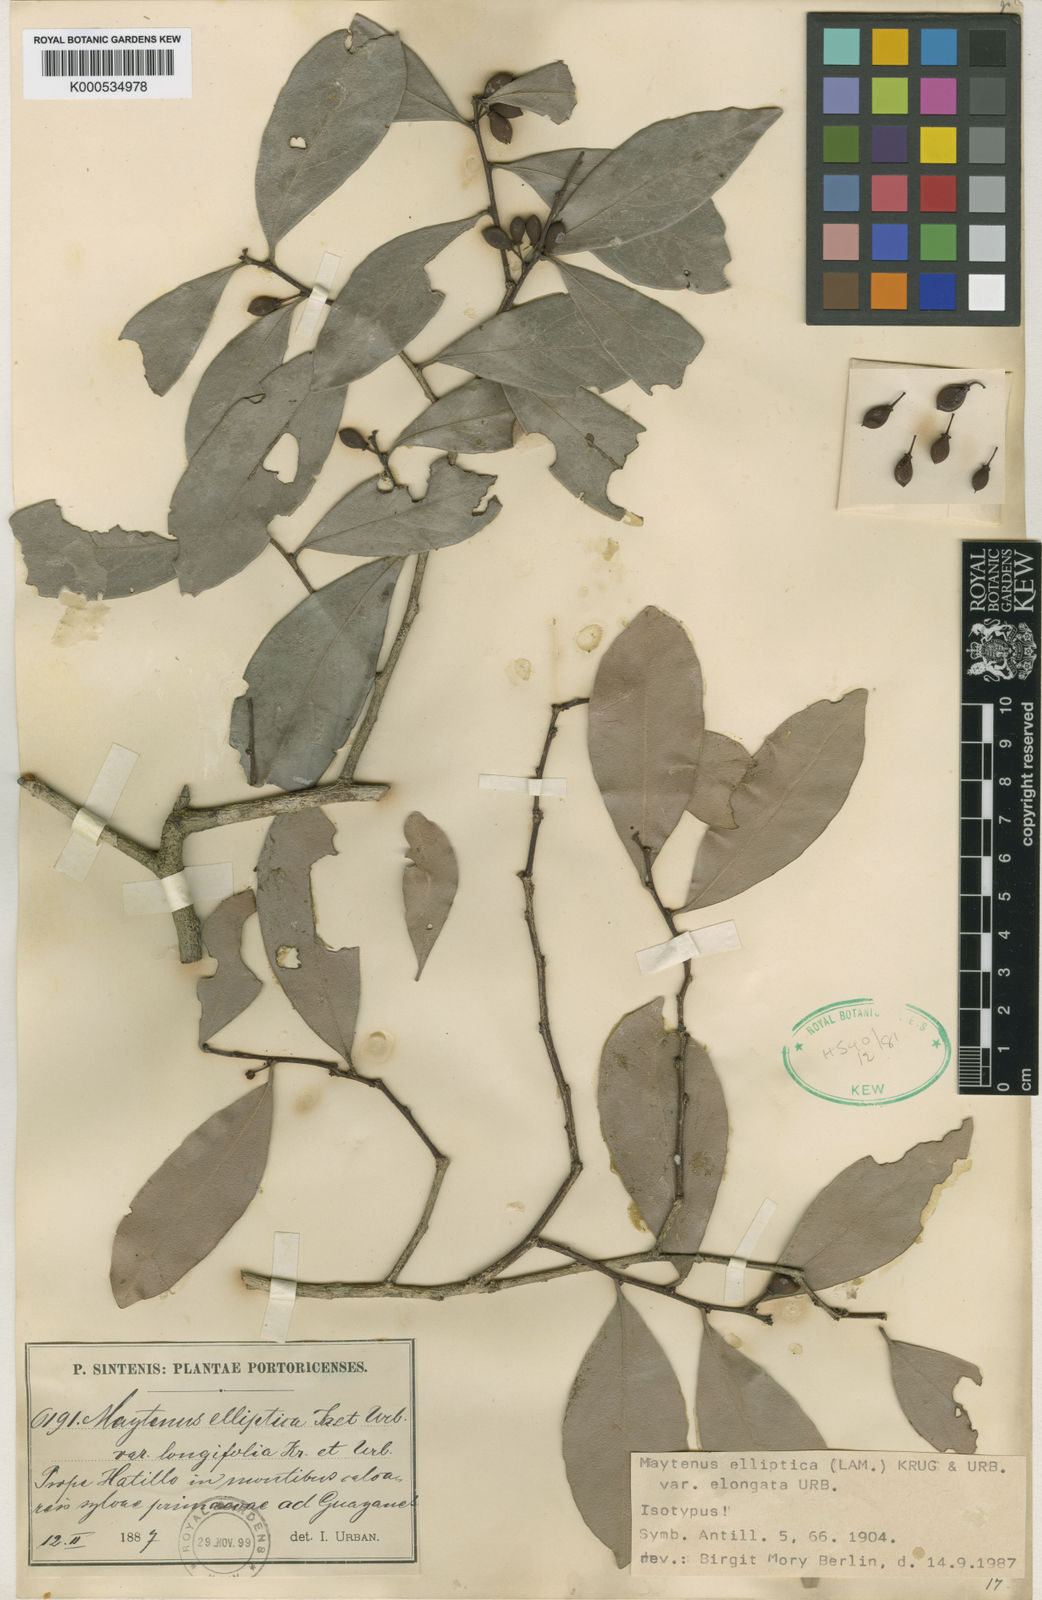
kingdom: Plantae
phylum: Tracheophyta
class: Magnoliopsida
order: Celastrales
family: Celastraceae
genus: Monteverdia
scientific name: Monteverdia elongata
